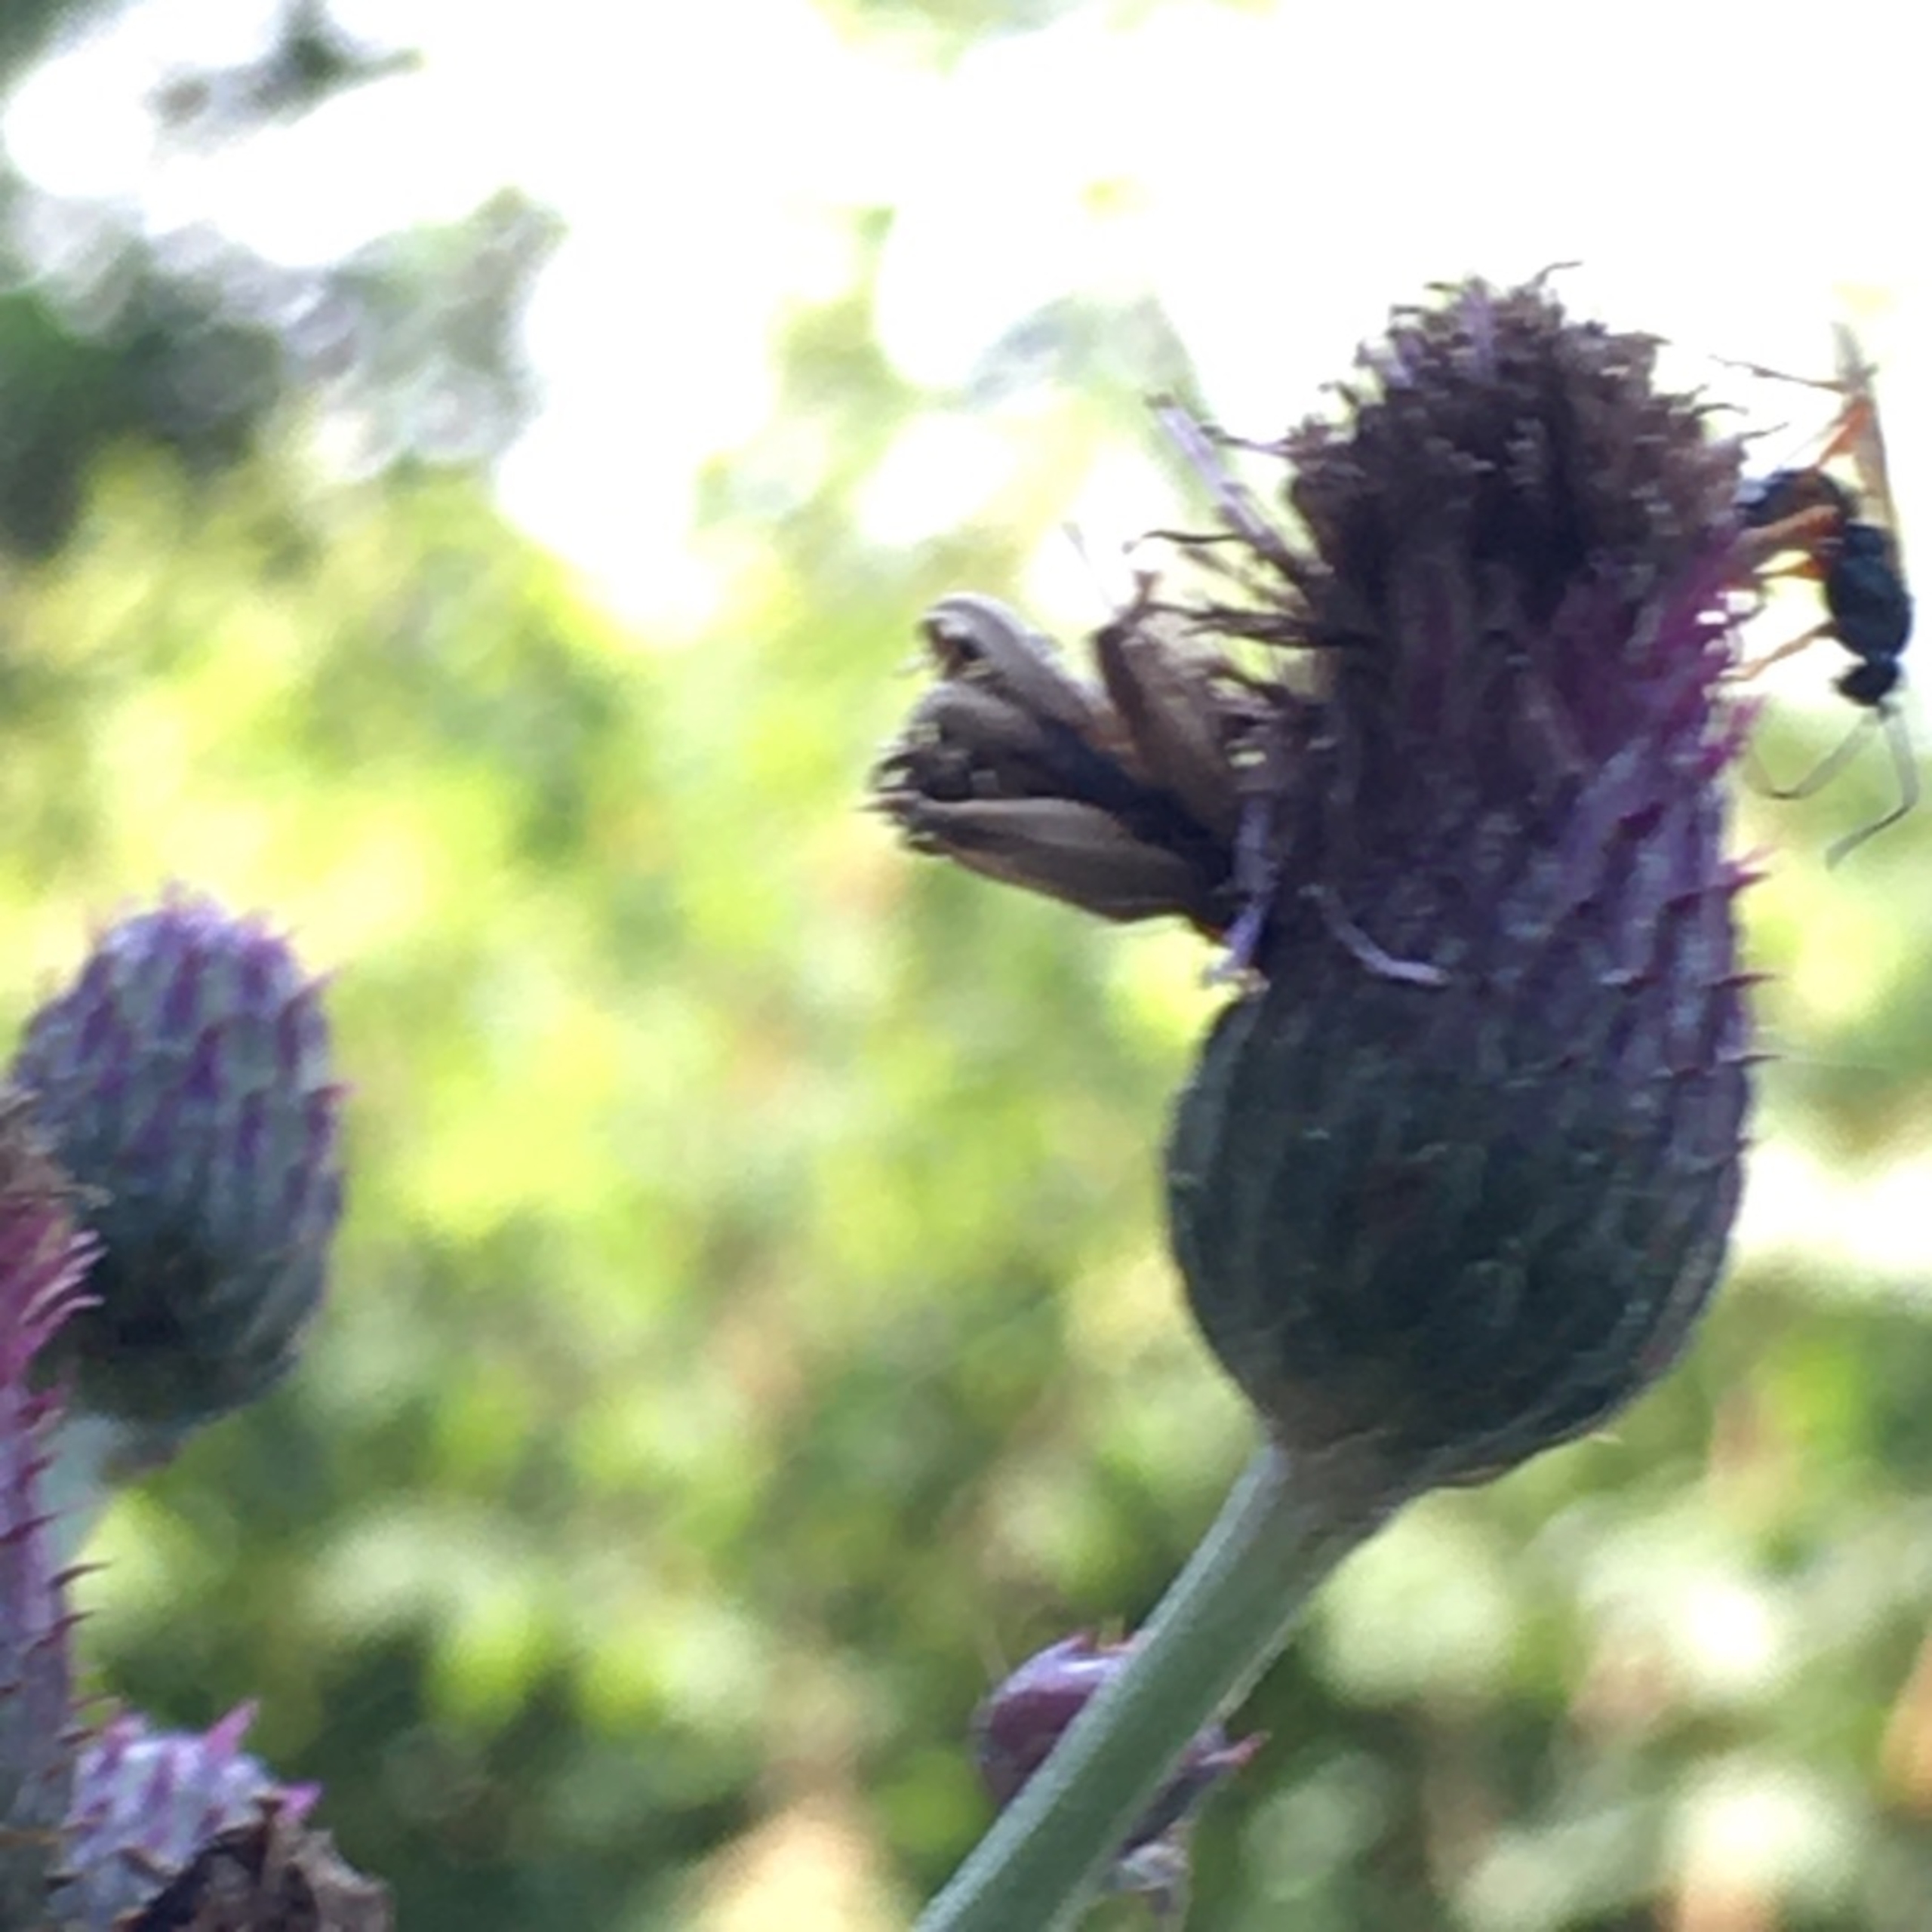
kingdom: Plantae
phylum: Tracheophyta
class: Magnoliopsida
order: Asterales
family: Asteraceae
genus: Cirsium
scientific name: Cirsium arvense
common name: Ager-tidsel
